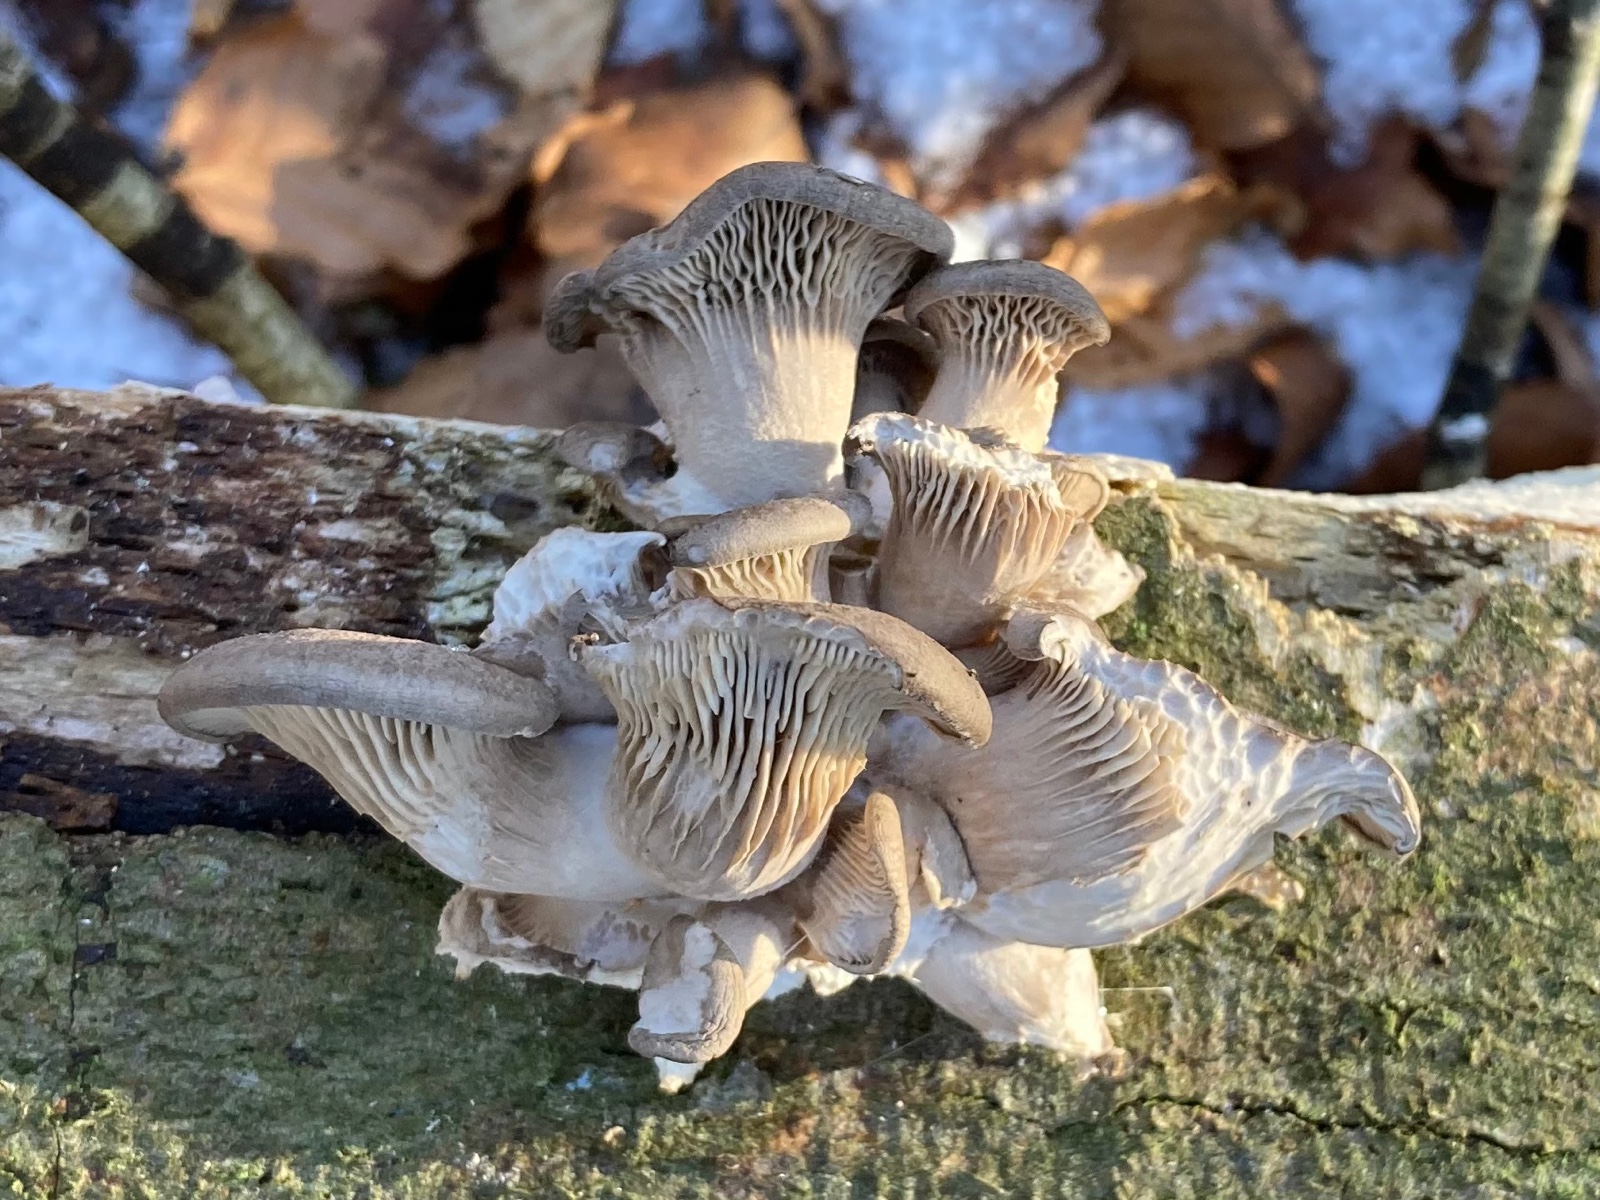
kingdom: Fungi
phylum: Basidiomycota
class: Agaricomycetes
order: Agaricales
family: Pleurotaceae
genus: Pleurotus
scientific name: Pleurotus ostreatus
